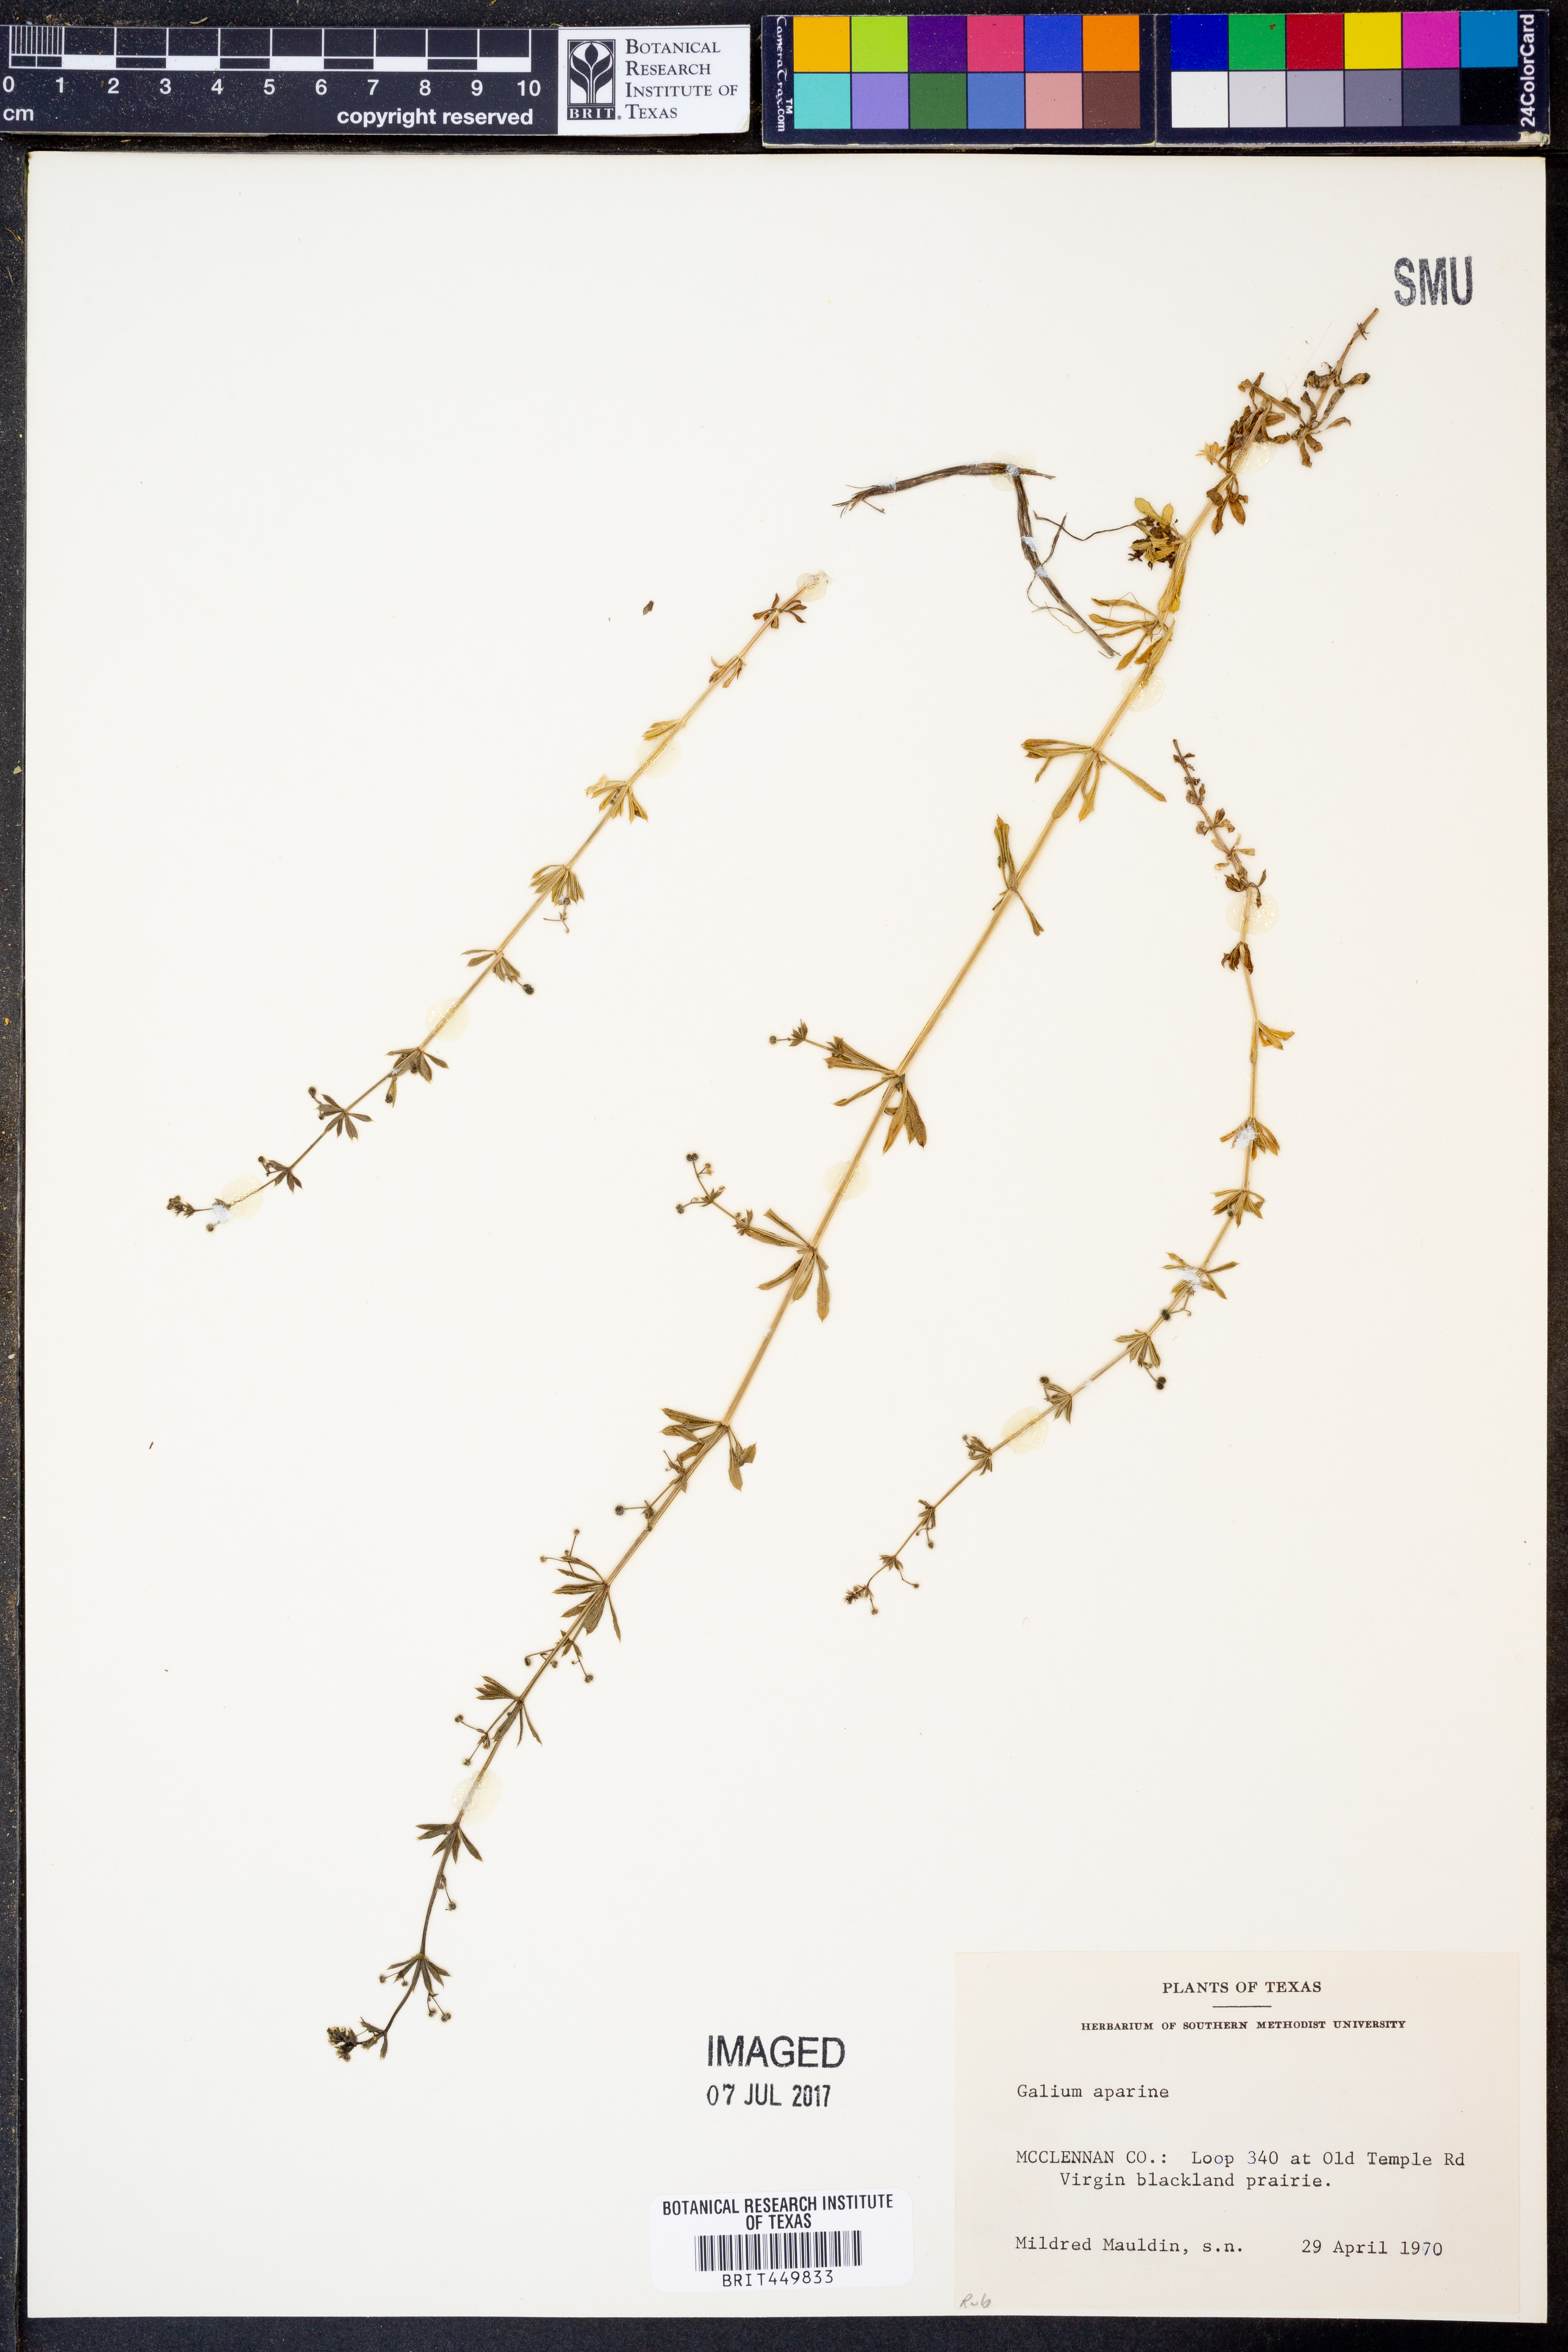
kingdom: Plantae
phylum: Tracheophyta
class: Magnoliopsida
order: Gentianales
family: Rubiaceae
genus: Galium
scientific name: Galium aparine
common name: Cleavers
